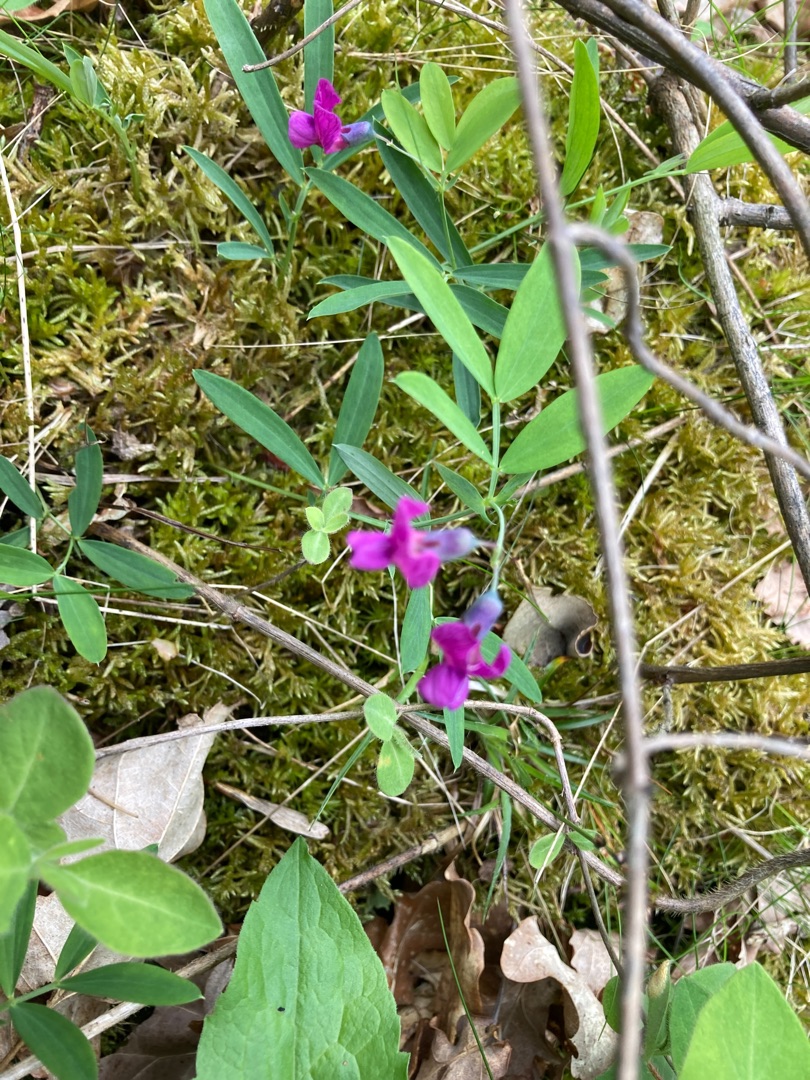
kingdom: Plantae
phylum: Tracheophyta
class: Magnoliopsida
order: Fabales
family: Fabaceae
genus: Lathyrus
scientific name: Lathyrus linifolius
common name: Krat-fladbælg
